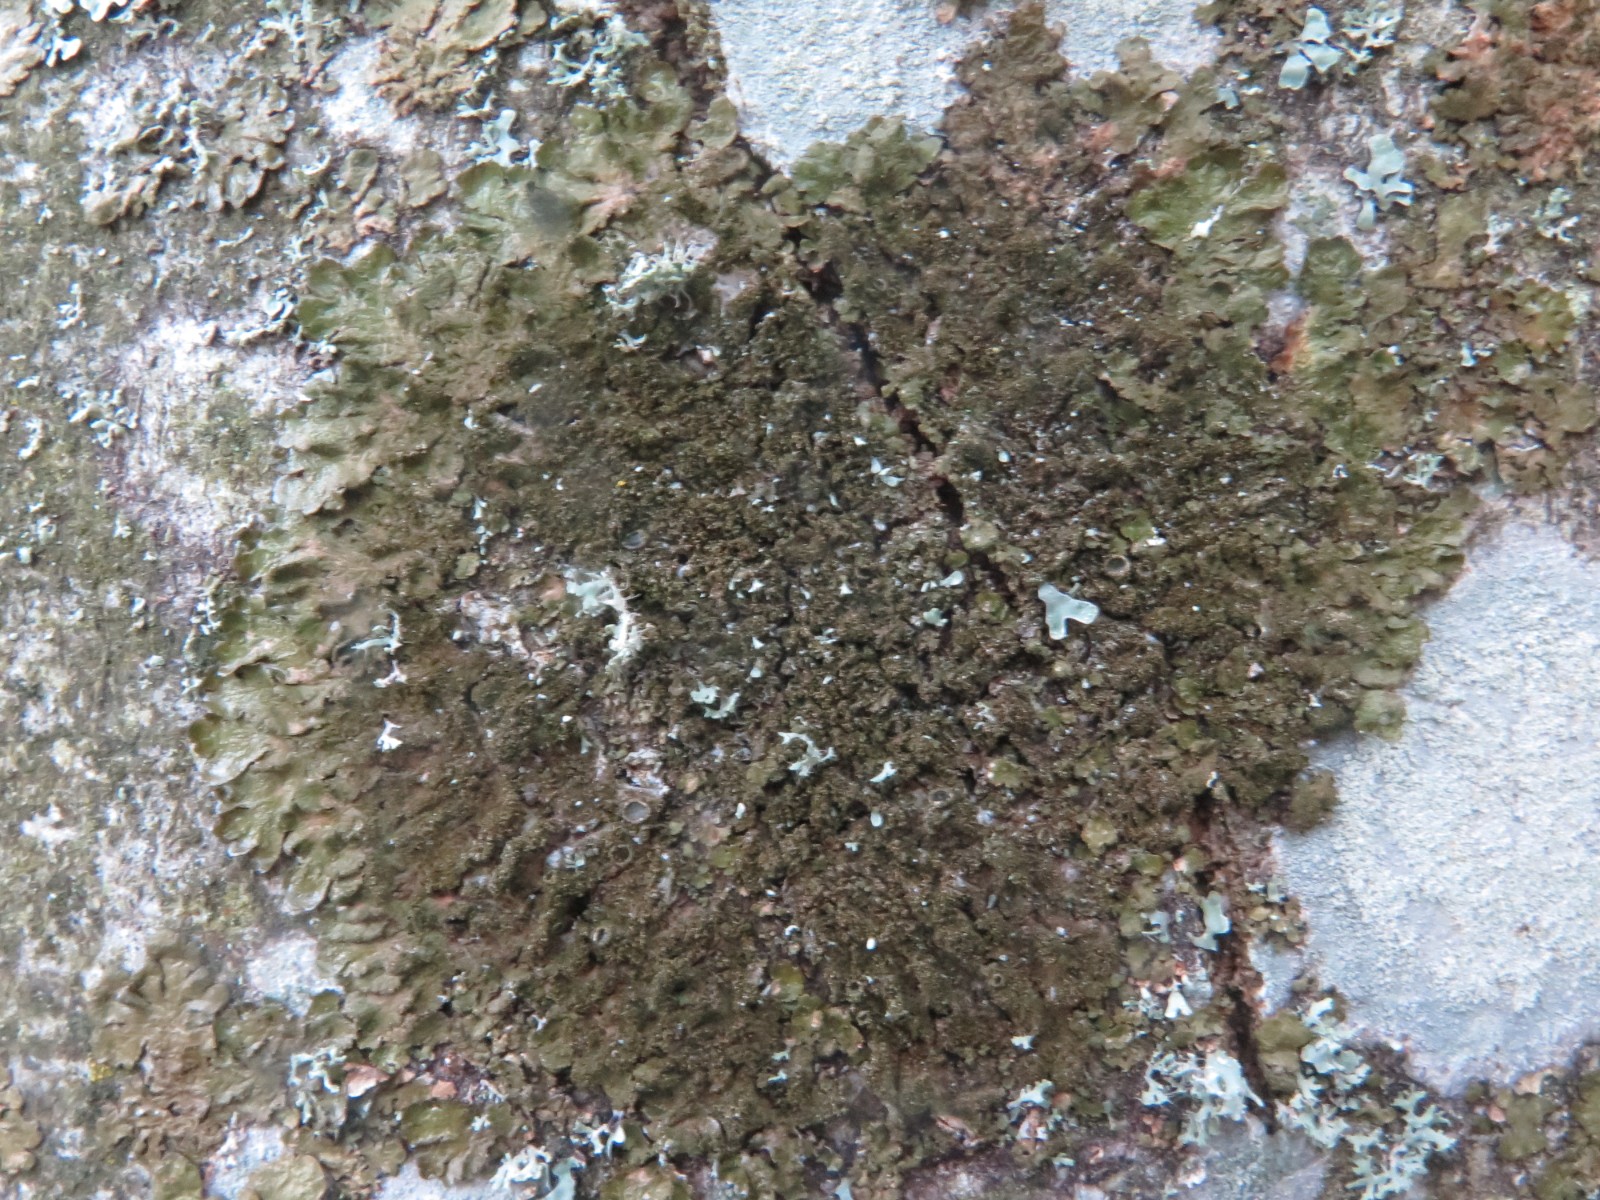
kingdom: Fungi
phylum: Ascomycota
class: Lecanoromycetes
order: Lecanorales
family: Parmeliaceae
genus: Melanelixia
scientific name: Melanelixia subaurifera
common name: guldpudret skållav
